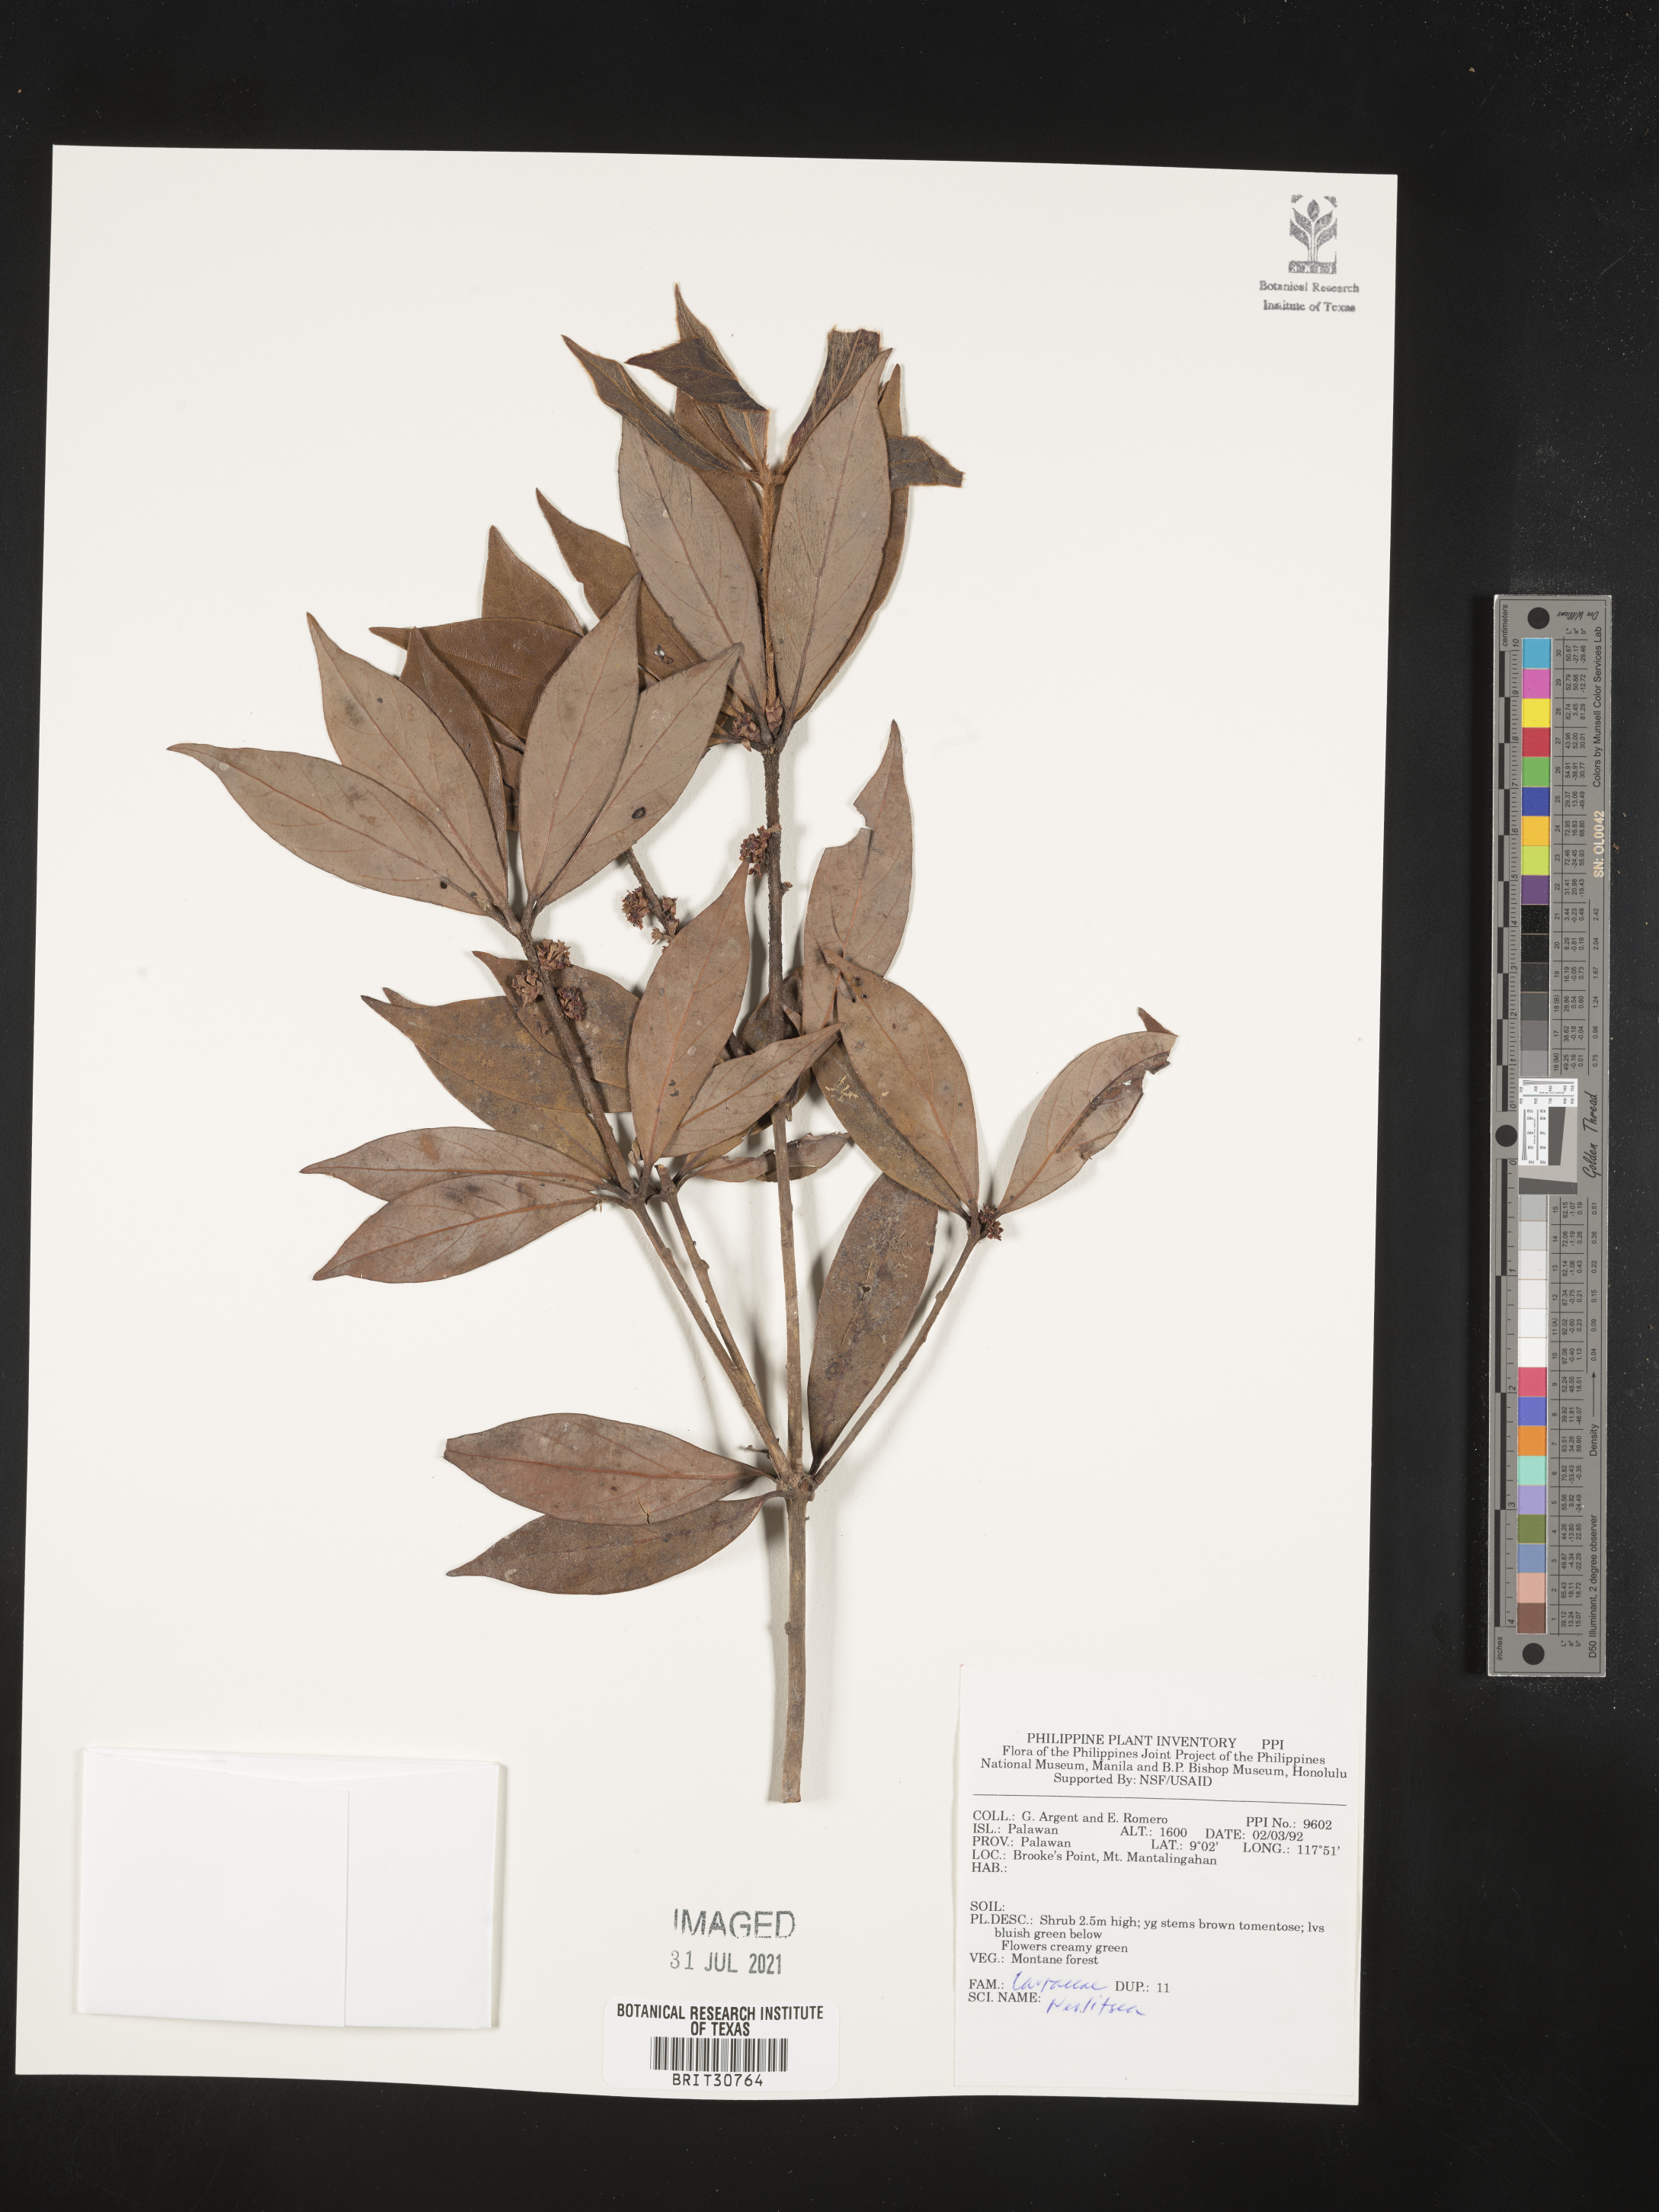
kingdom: Plantae
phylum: Tracheophyta
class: Magnoliopsida
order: Laurales
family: Lauraceae
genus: Neolitsea
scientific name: Neolitsea
